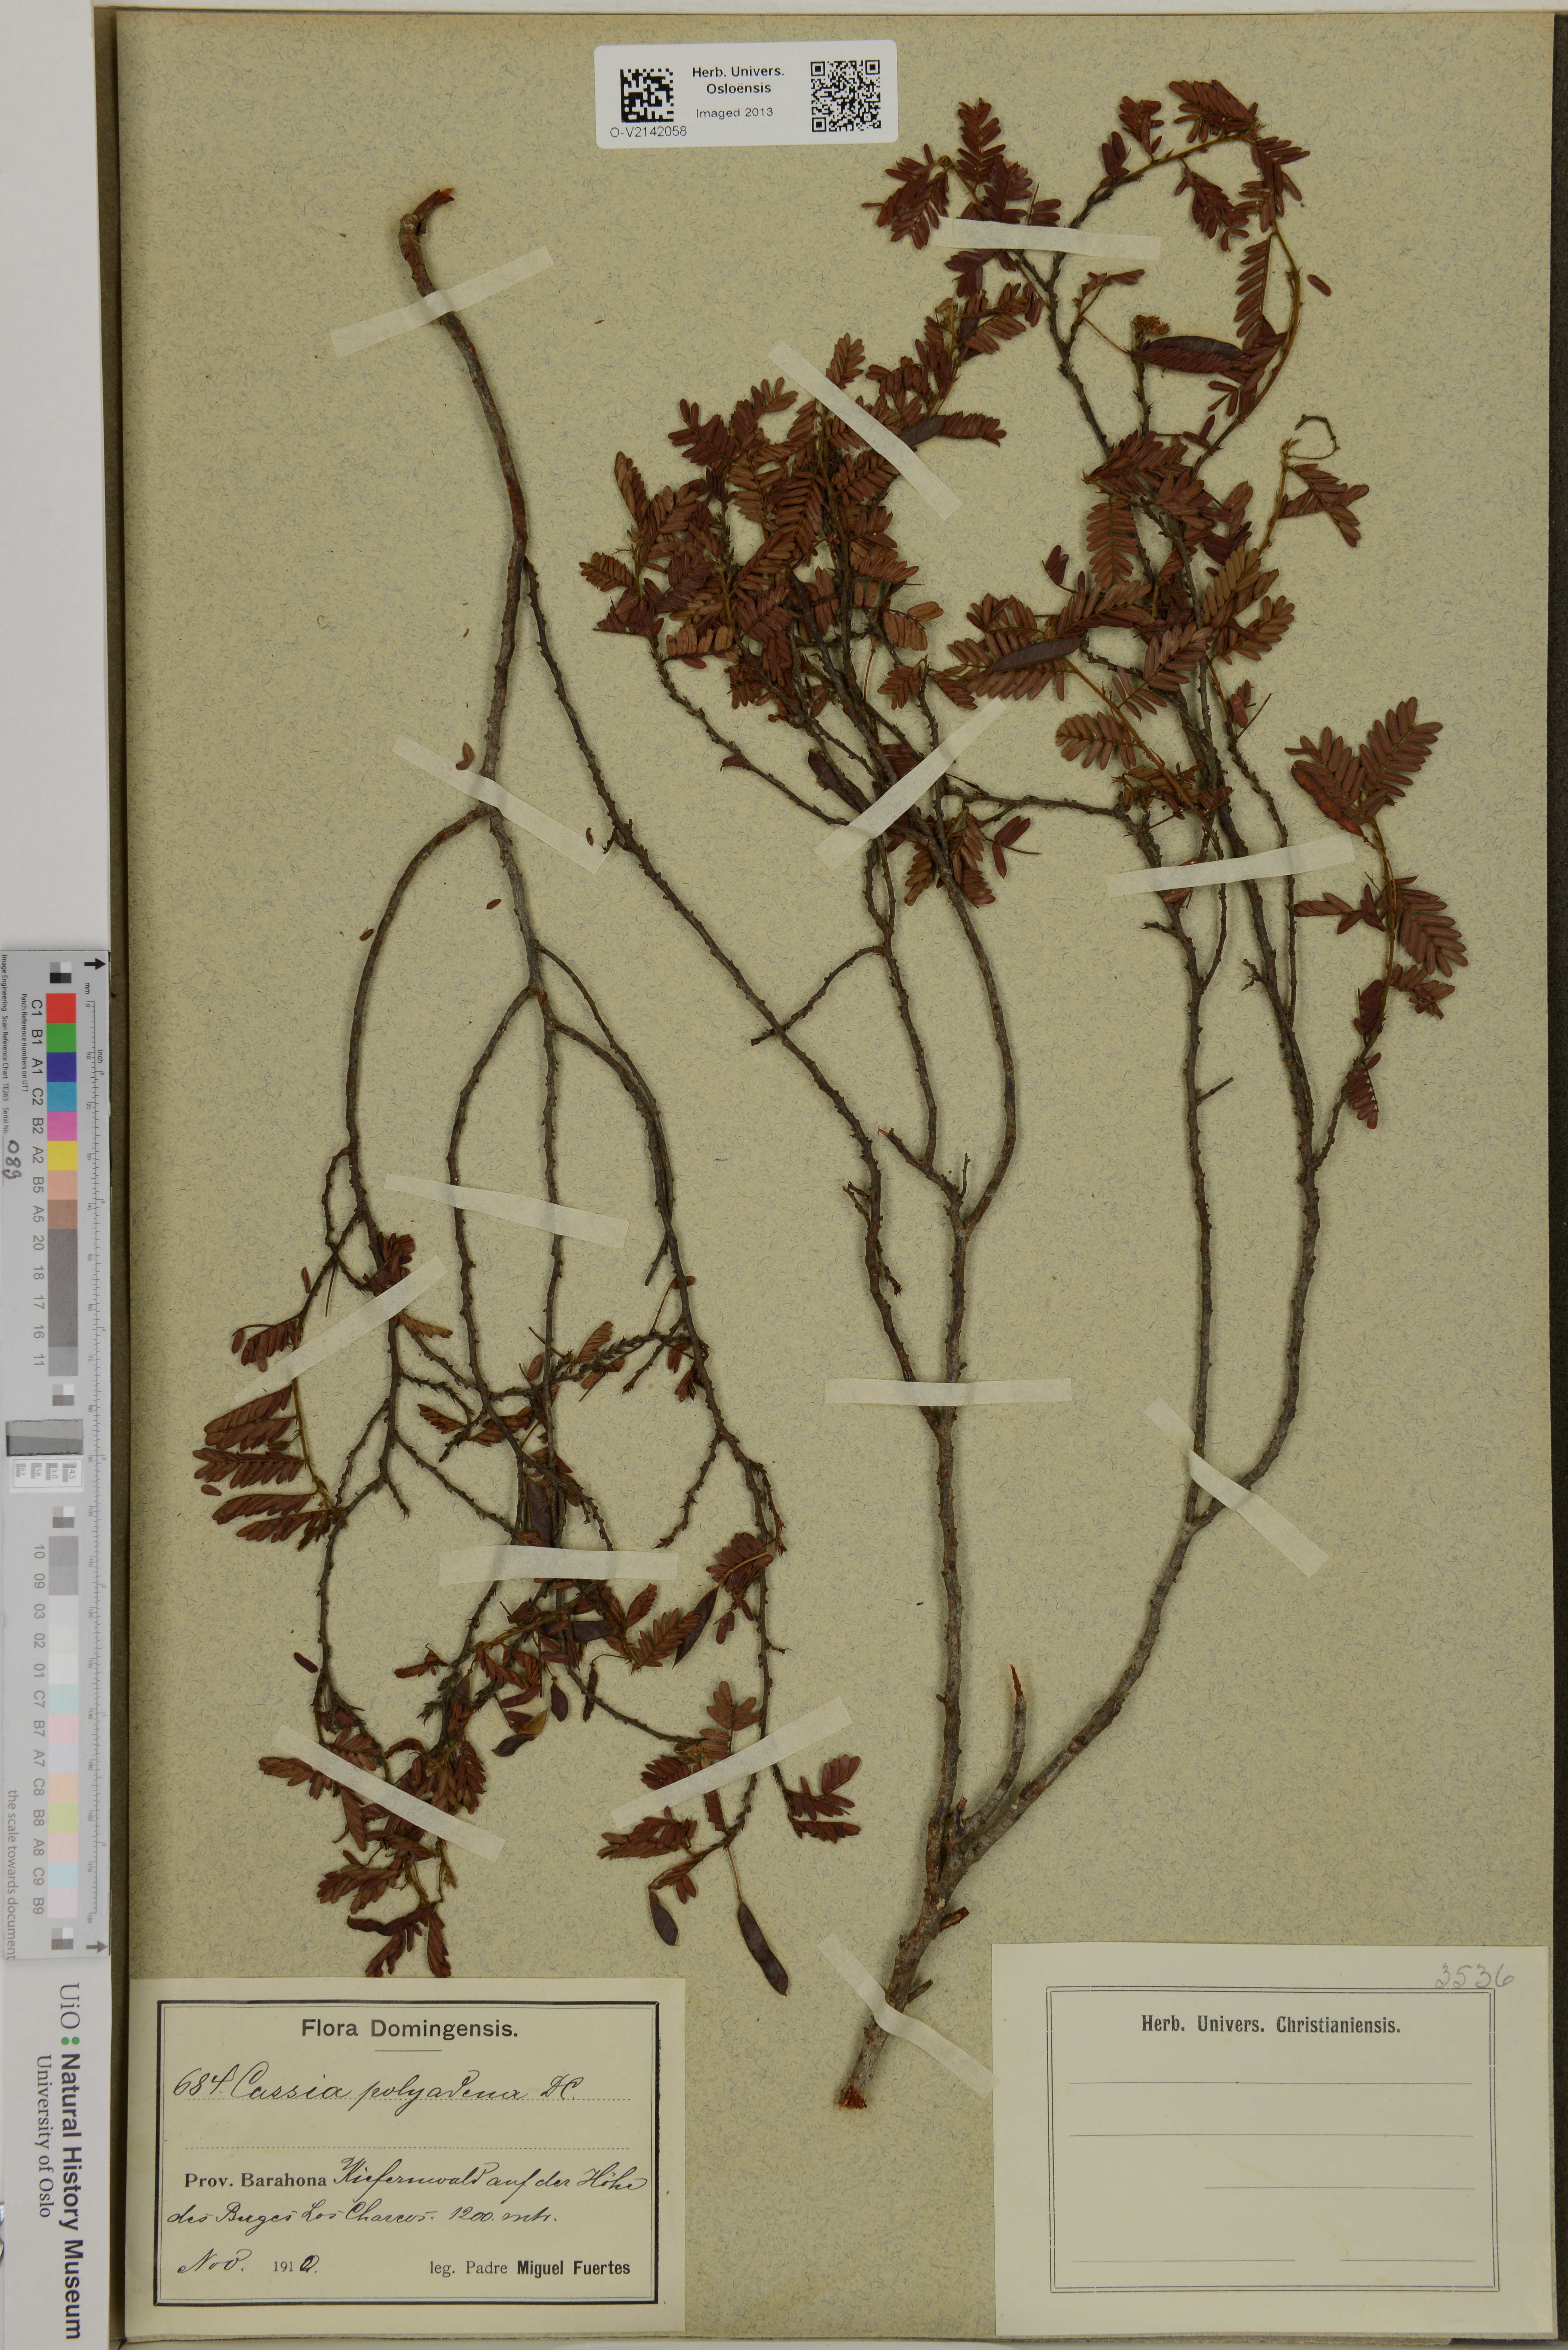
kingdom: Plantae
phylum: Tracheophyta
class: Magnoliopsida
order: Fabales
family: Fabaceae
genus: Chamaecrista
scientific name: Chamaecrista glandulosa
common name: Wild peas
